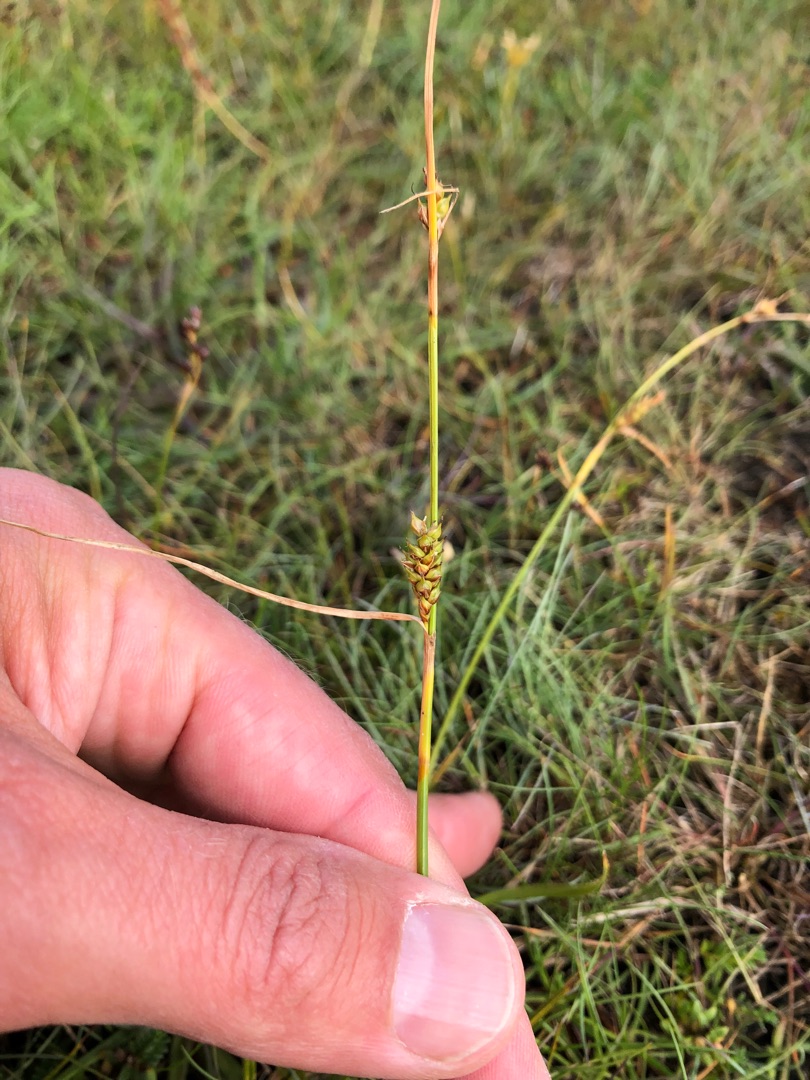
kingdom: Plantae
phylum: Tracheophyta
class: Liliopsida
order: Poales
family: Cyperaceae
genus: Carex
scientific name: Carex distans
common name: Fjernakset star
